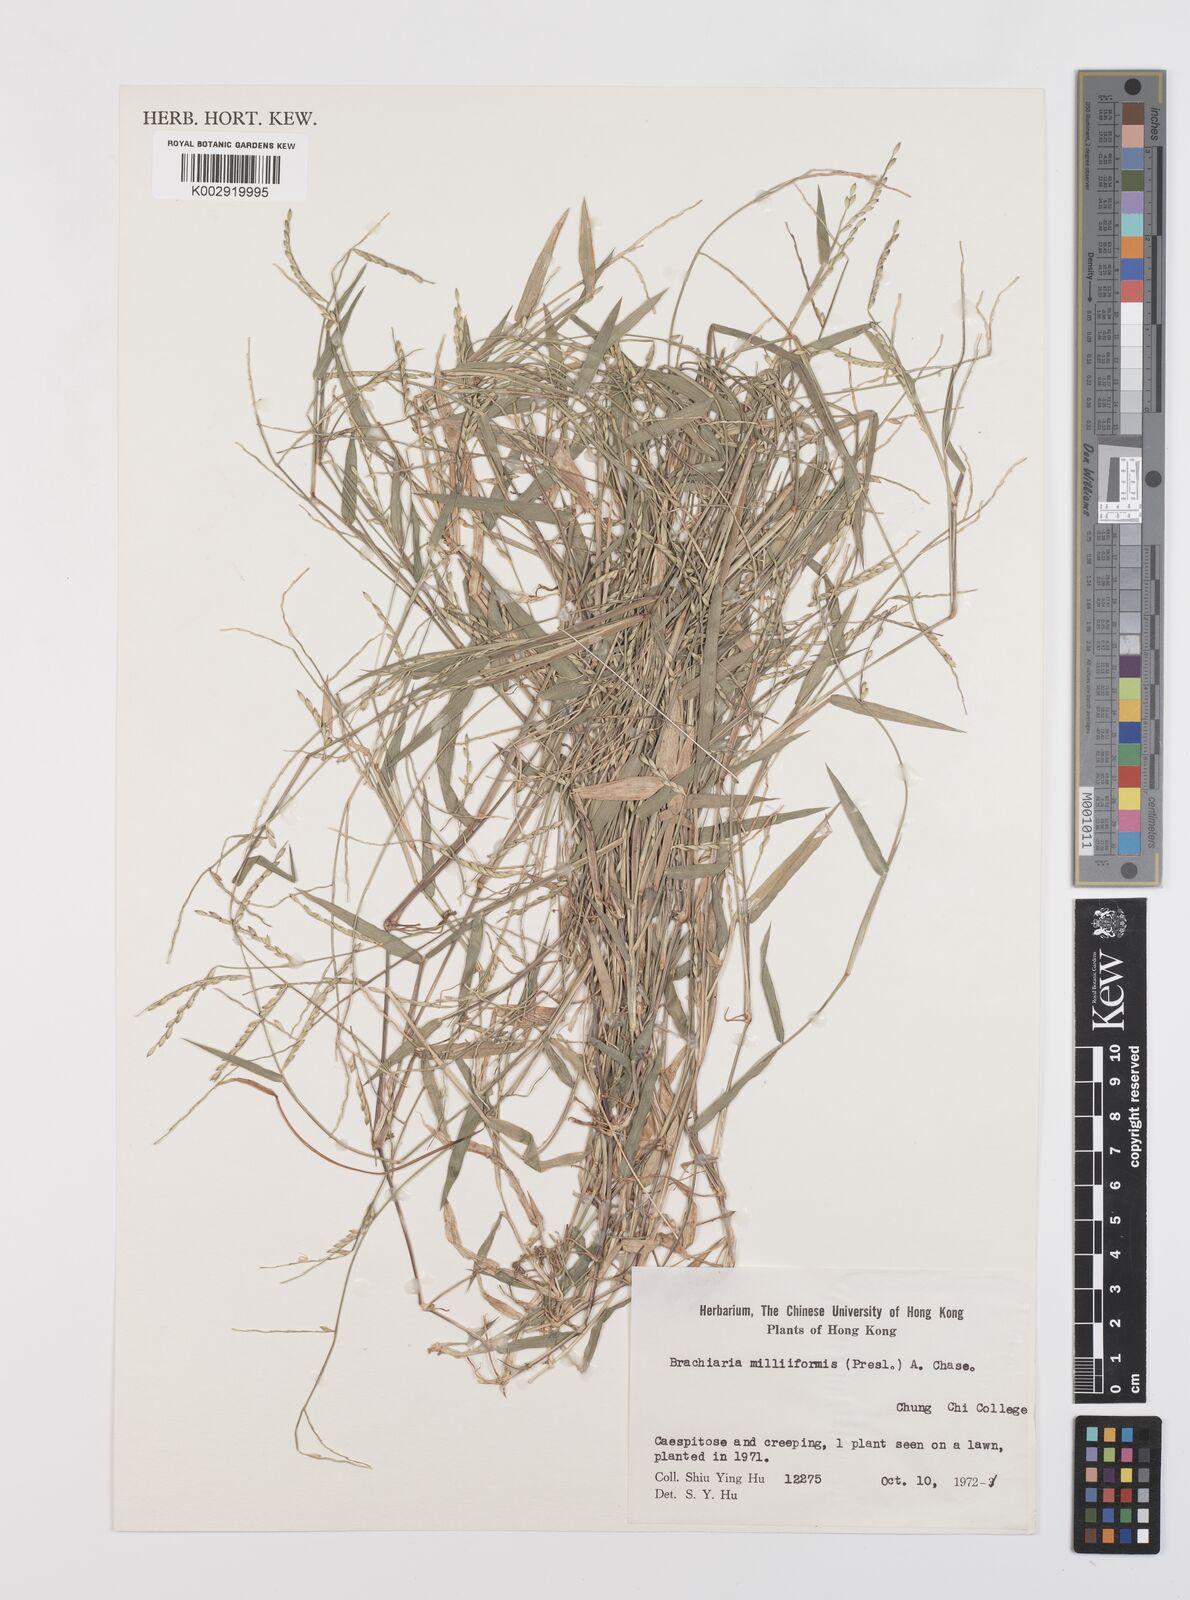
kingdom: Plantae
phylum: Tracheophyta
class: Liliopsida
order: Poales
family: Poaceae
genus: Urochloa
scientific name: Urochloa subquadripara
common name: Armgrass millet
